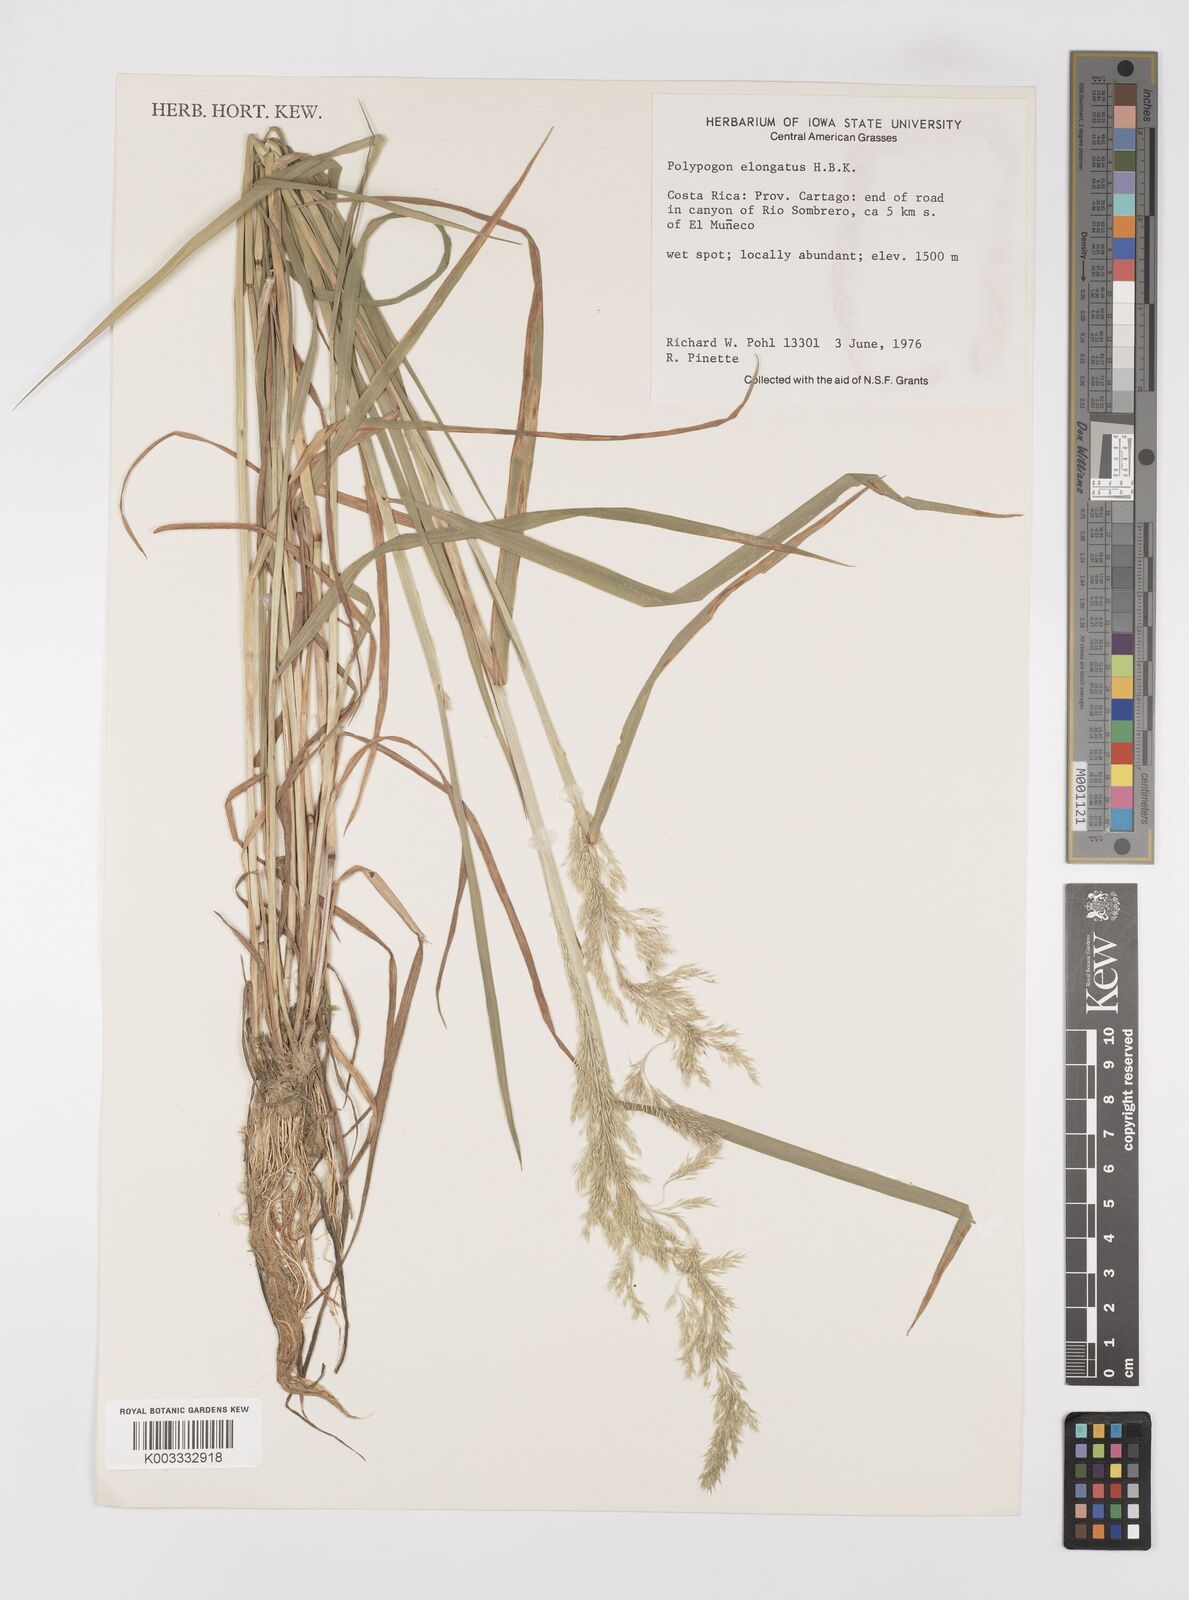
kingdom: Plantae
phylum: Tracheophyta
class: Liliopsida
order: Poales
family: Poaceae
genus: Polypogon
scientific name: Polypogon elongatus
